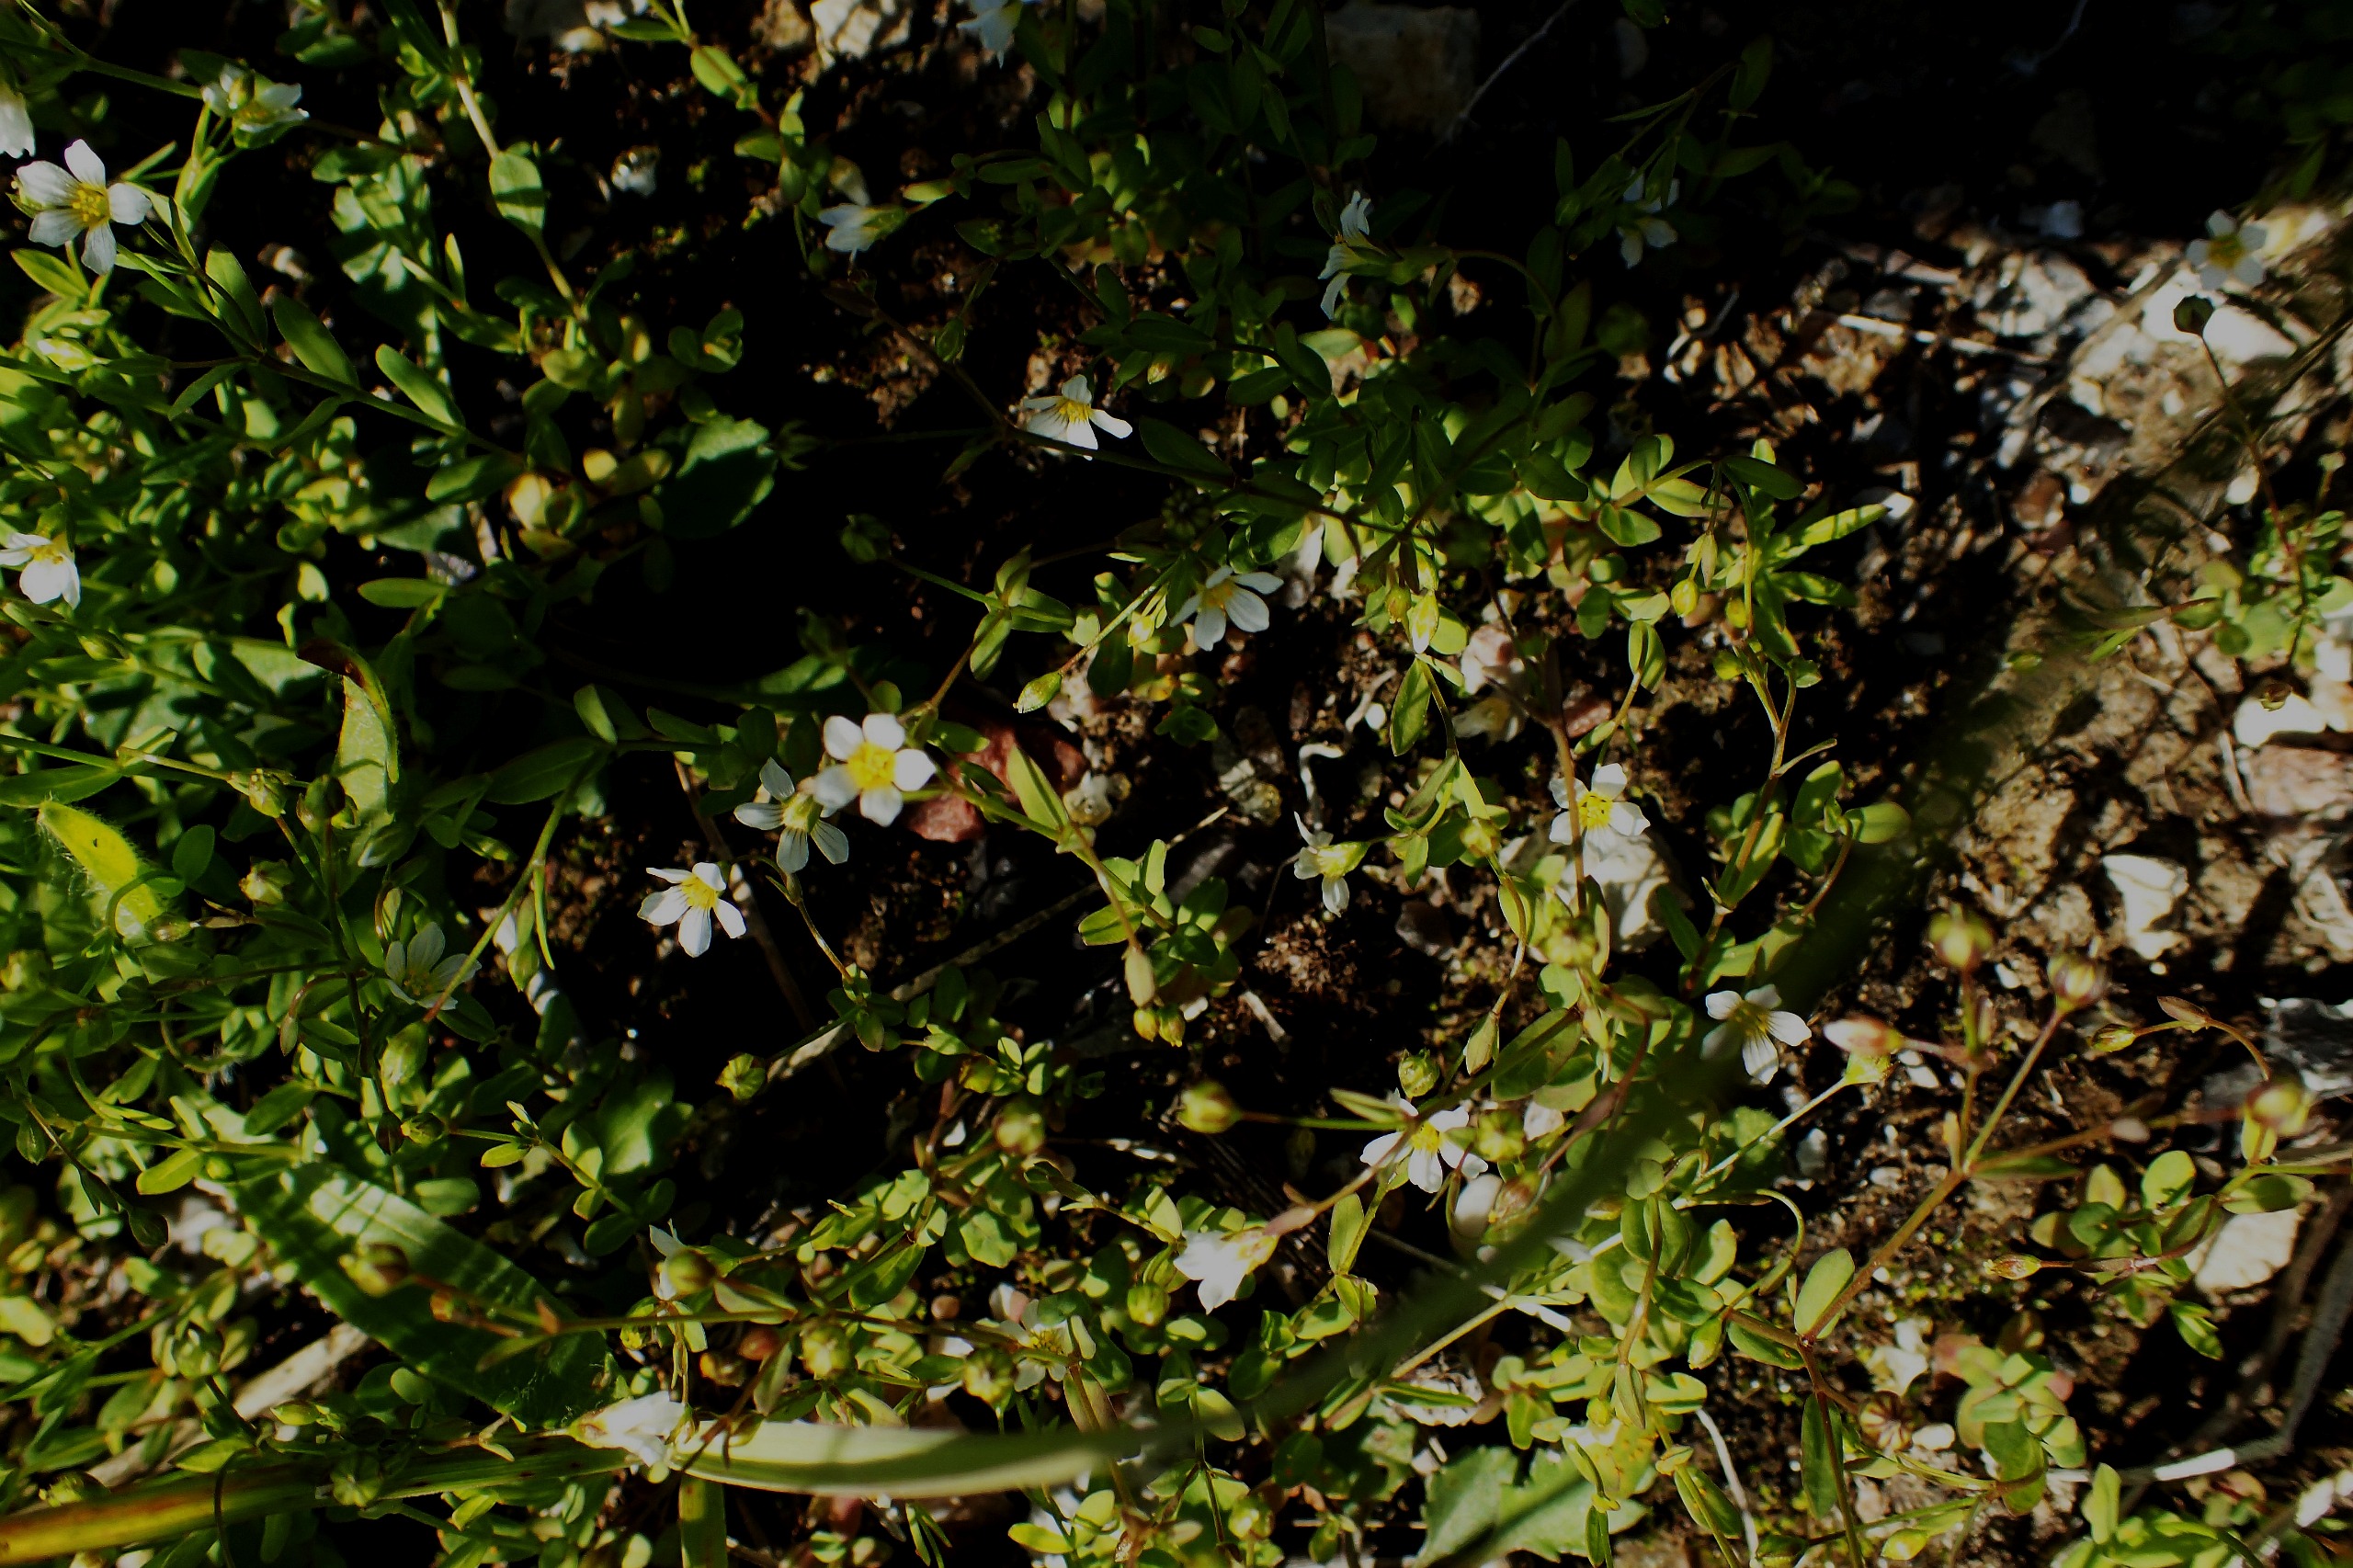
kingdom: Plantae
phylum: Tracheophyta
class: Magnoliopsida
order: Malpighiales
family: Linaceae
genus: Linum
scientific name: Linum catharticum
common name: Vild hør
